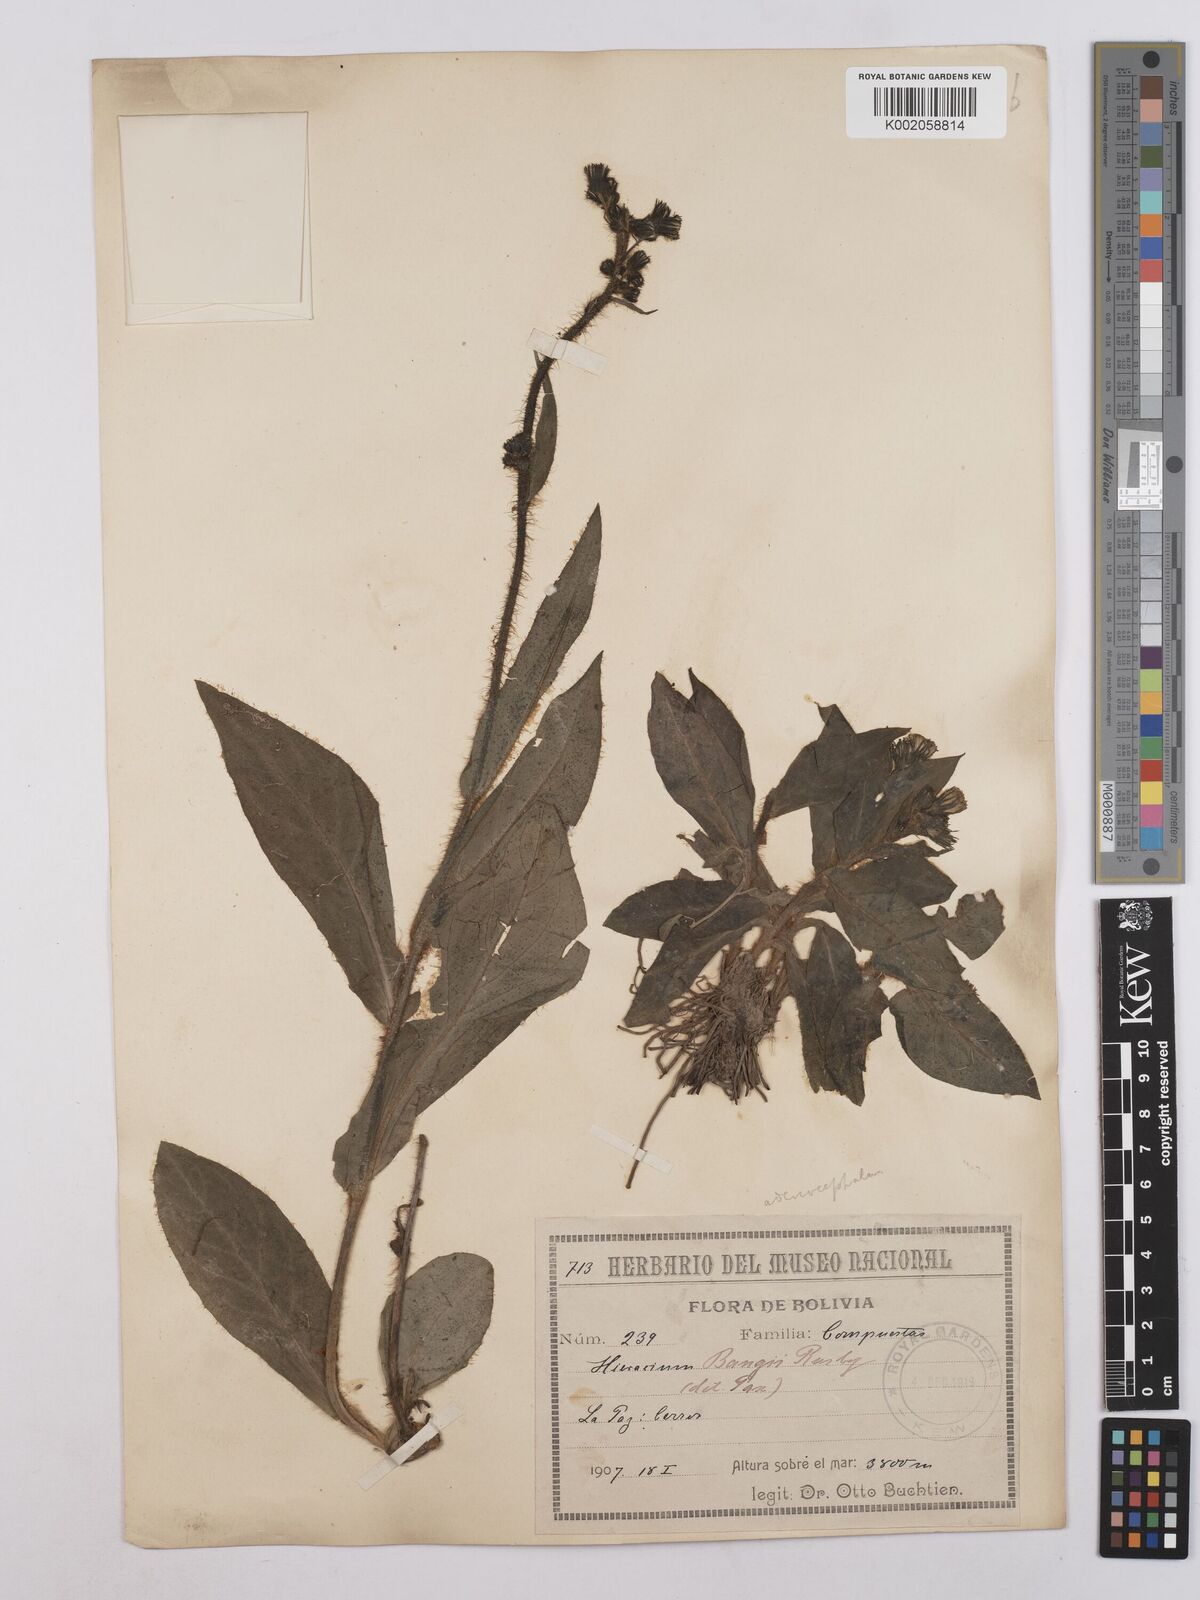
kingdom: Plantae
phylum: Tracheophyta
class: Magnoliopsida
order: Asterales
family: Asteraceae
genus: Hieracium
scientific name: Hieracium
